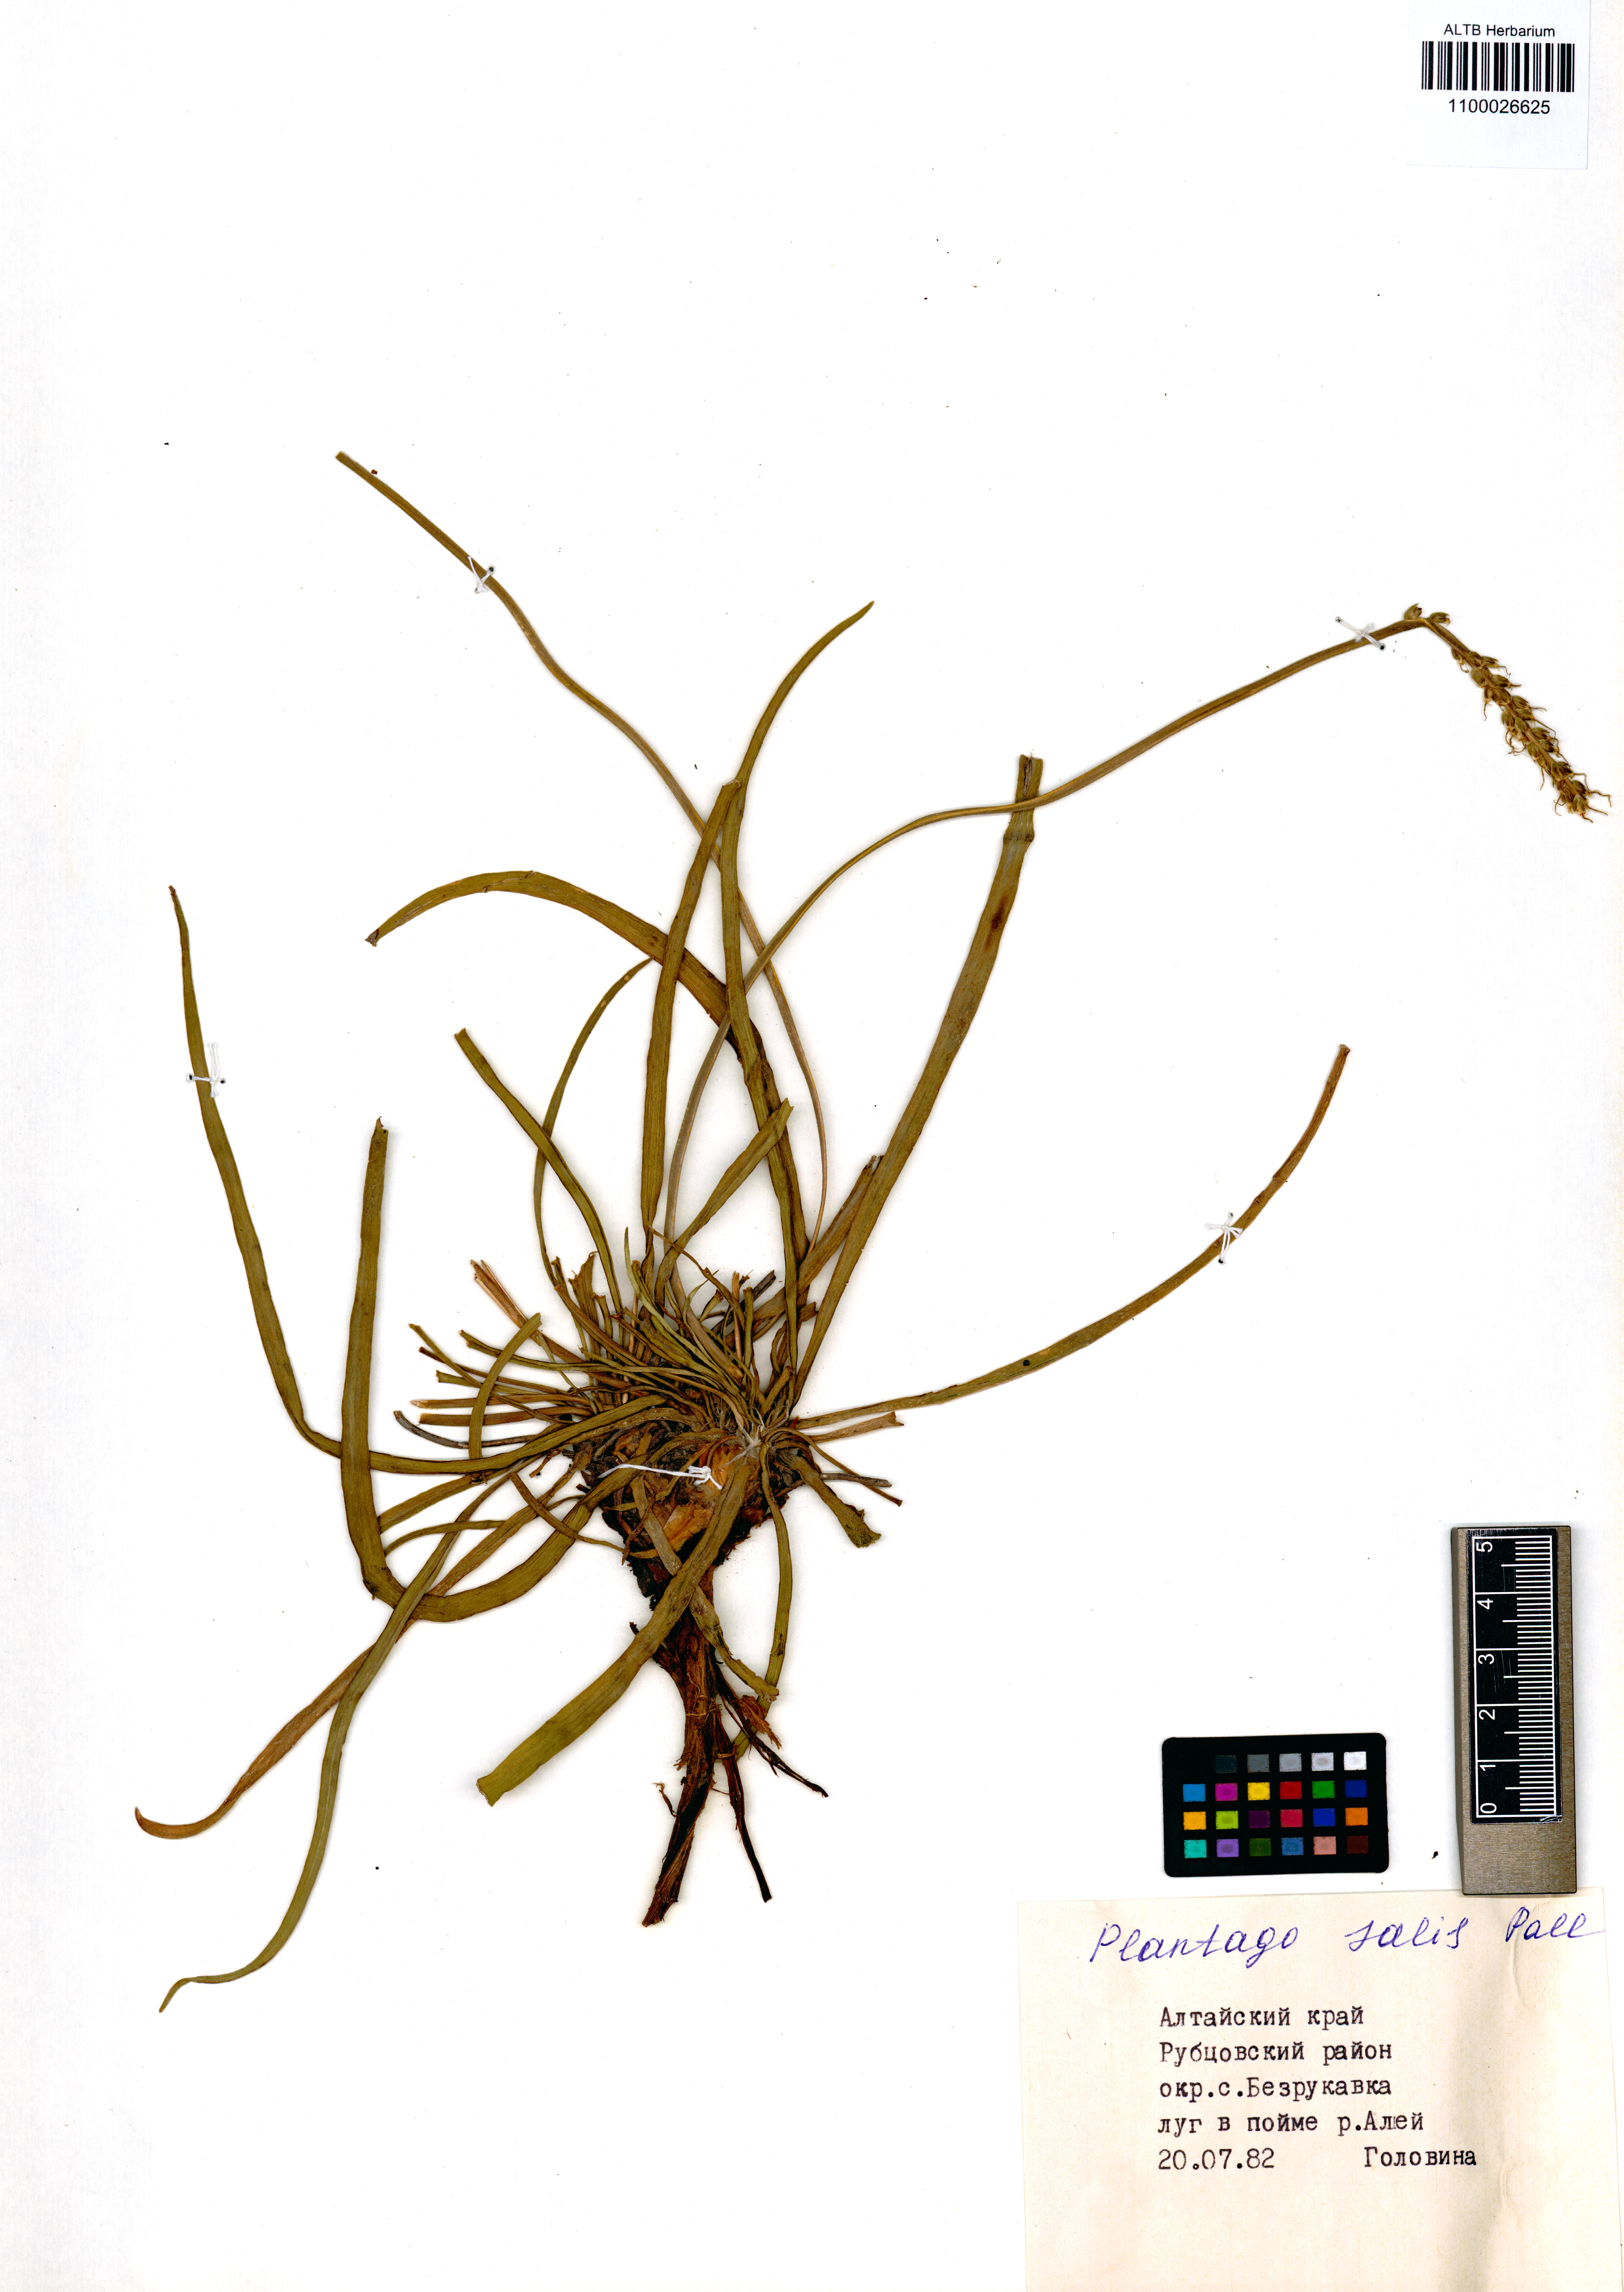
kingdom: Plantae
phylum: Tracheophyta
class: Magnoliopsida
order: Lamiales
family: Plantaginaceae
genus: Plantago
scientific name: Plantago salsa
